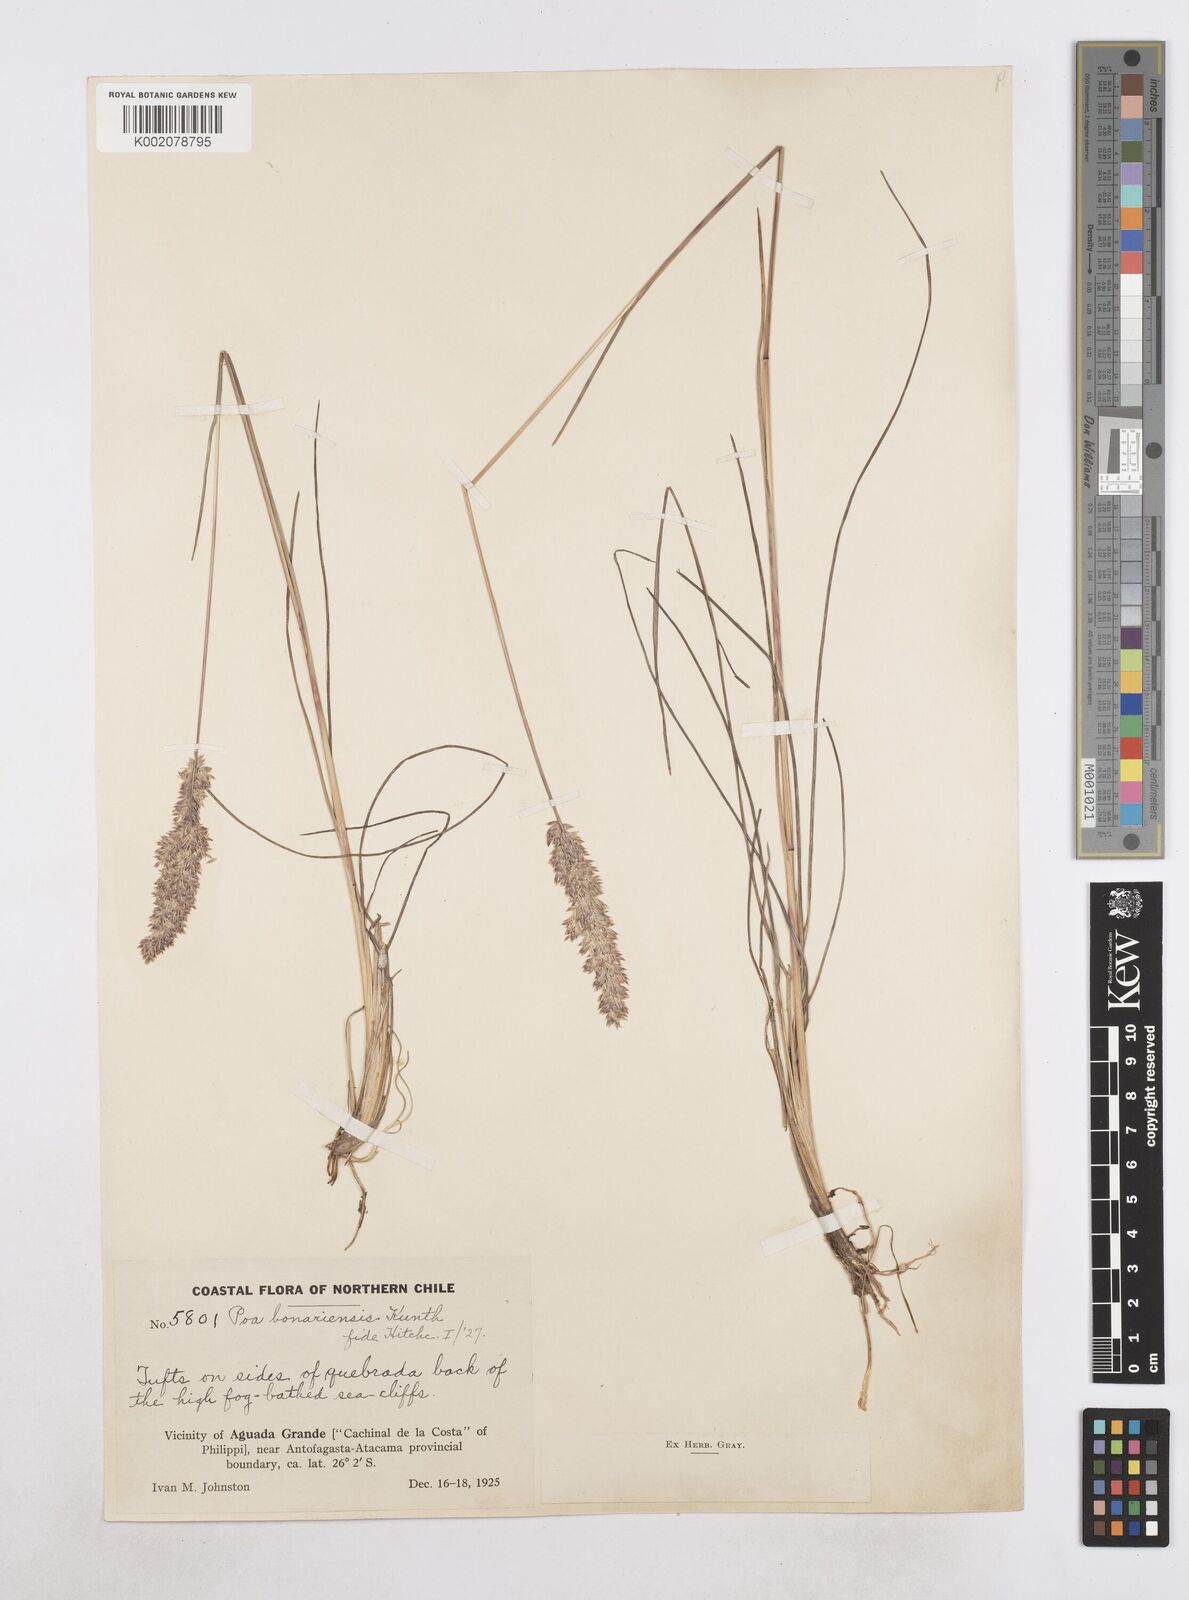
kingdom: Plantae
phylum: Tracheophyta
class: Liliopsida
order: Poales
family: Poaceae
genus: Poa
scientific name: Poa
